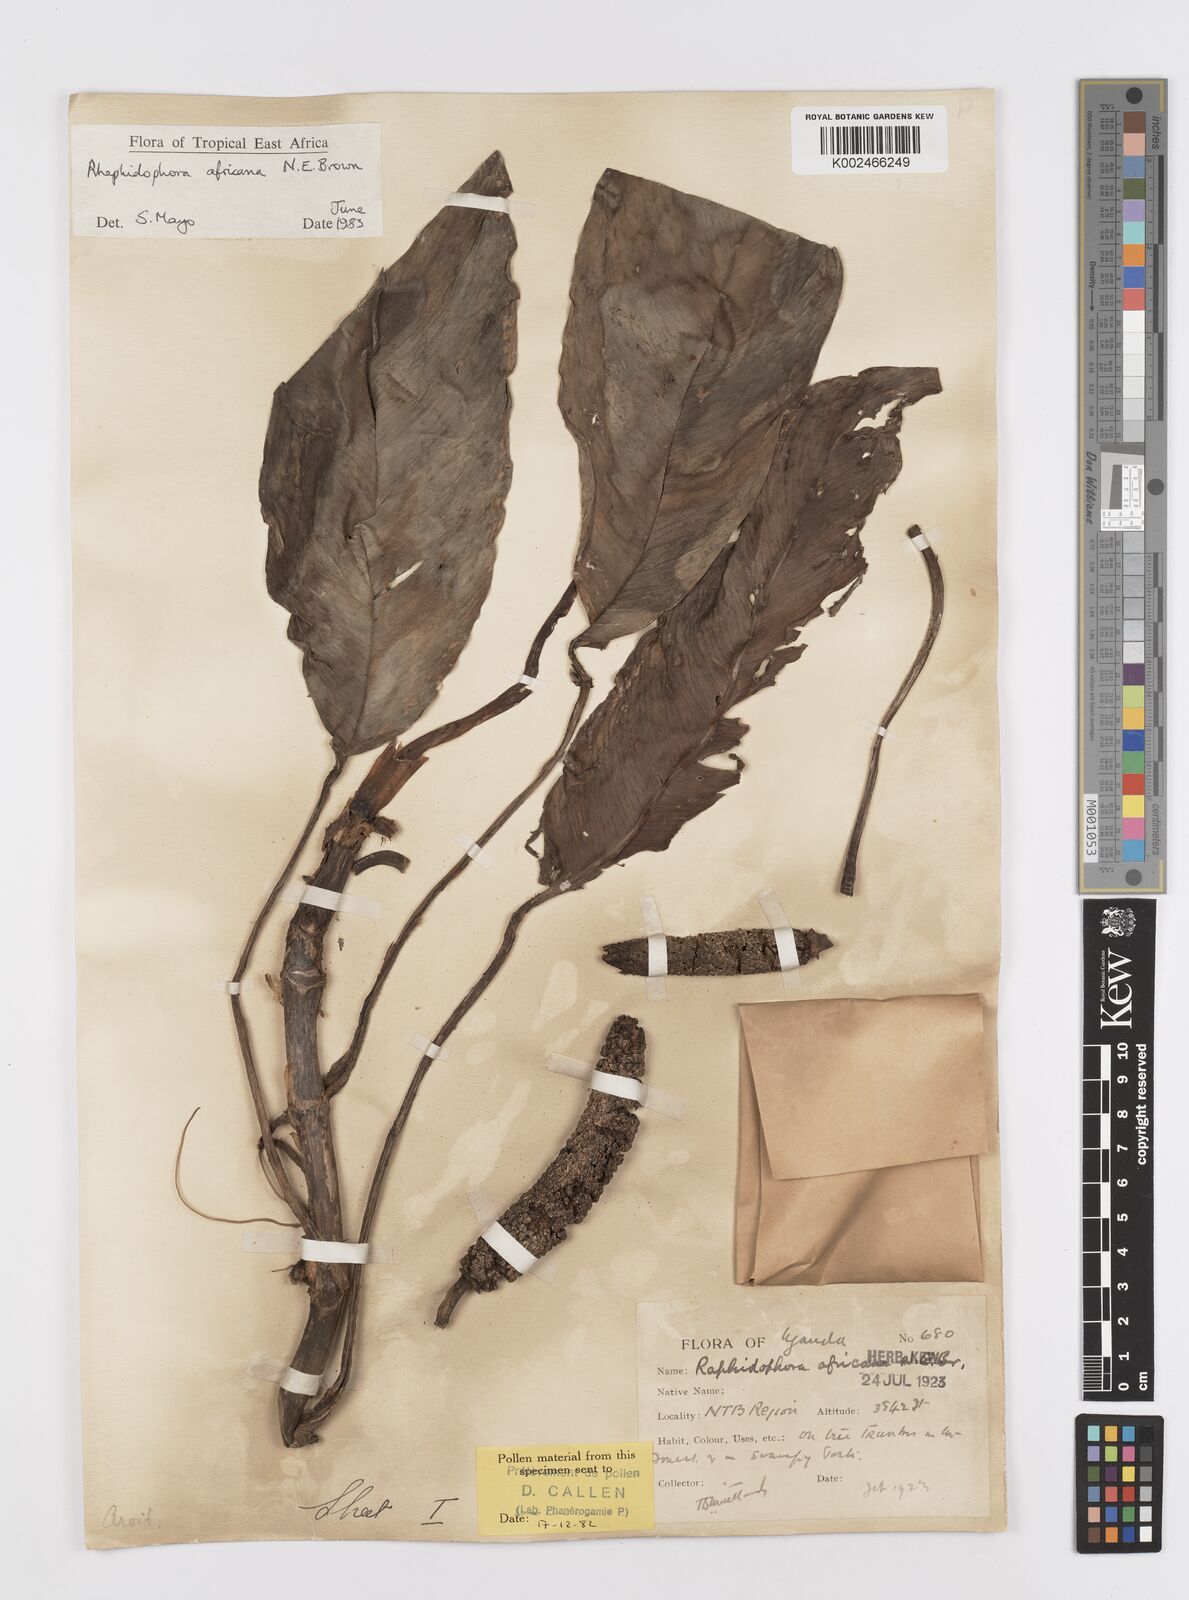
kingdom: Plantae
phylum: Tracheophyta
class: Liliopsida
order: Alismatales
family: Araceae
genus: Rhaphidophora
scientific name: Rhaphidophora africana
